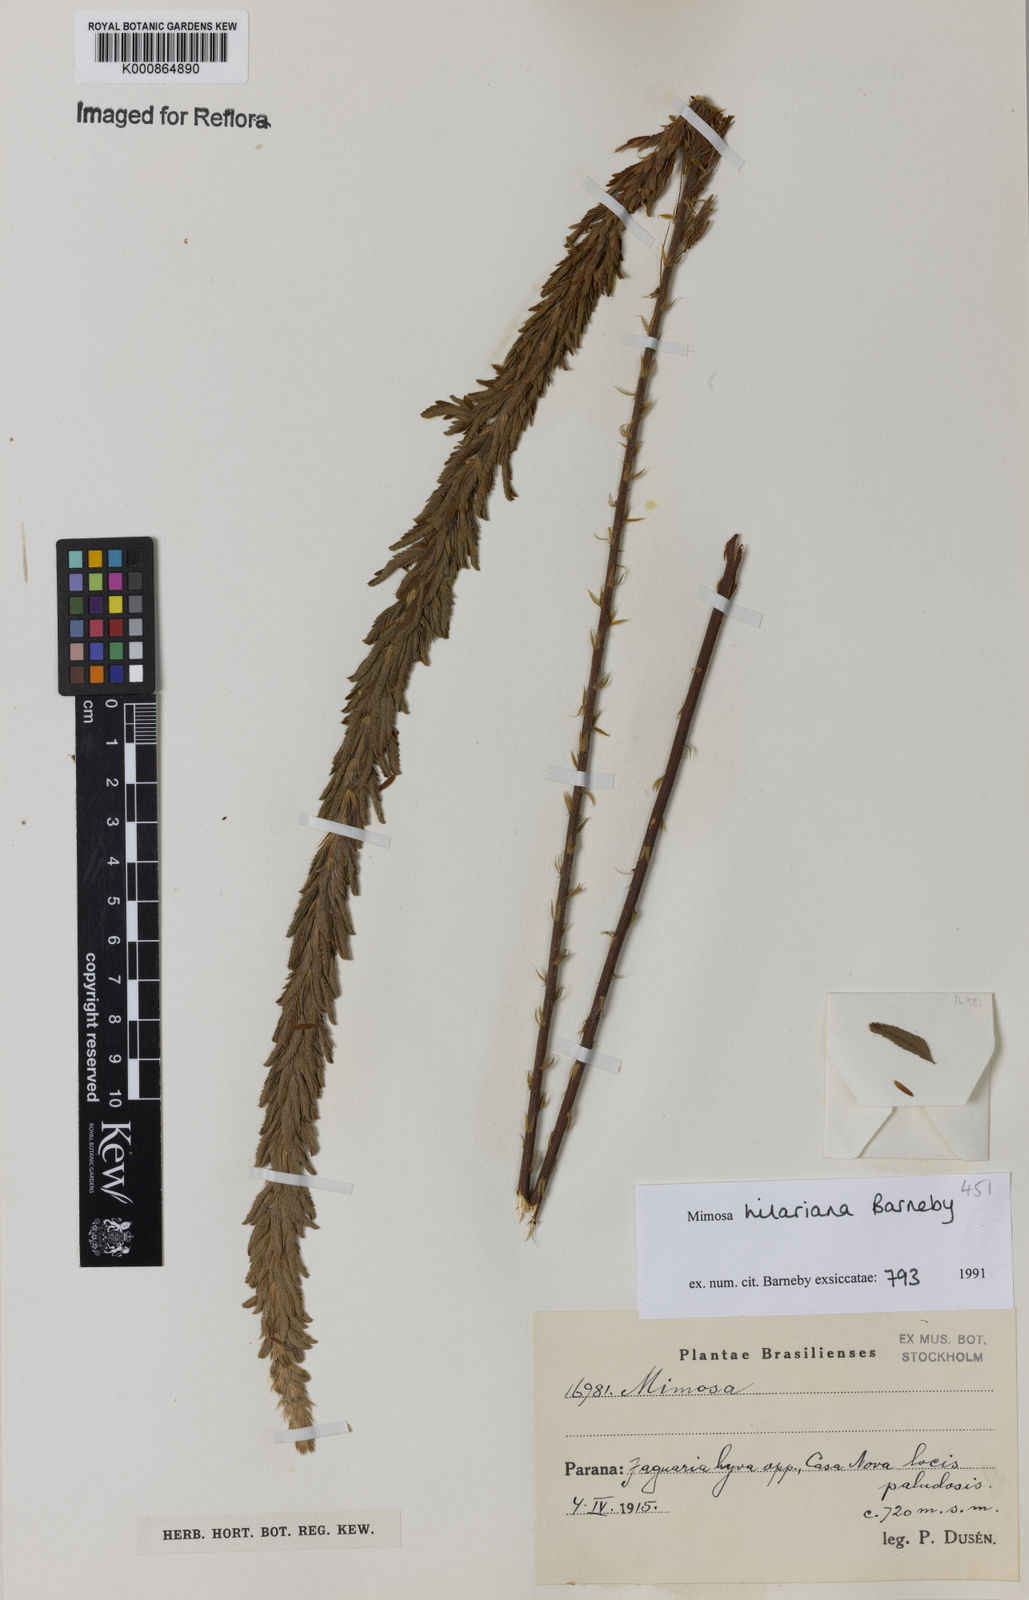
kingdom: Plantae
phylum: Tracheophyta
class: Magnoliopsida
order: Fabales
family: Fabaceae
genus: Mimosa
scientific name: Mimosa hilariana
